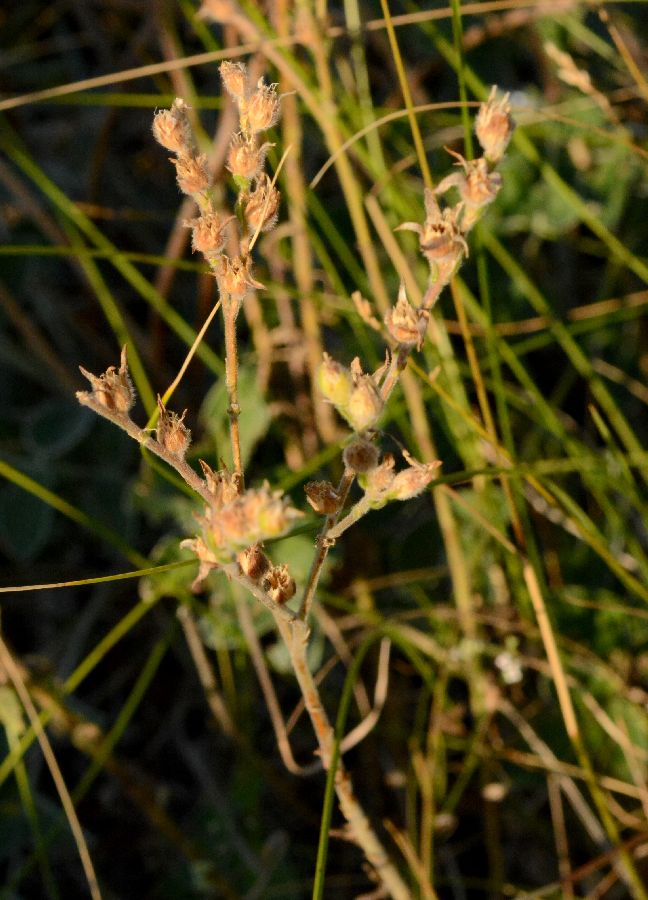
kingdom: Plantae
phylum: Tracheophyta
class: Magnoliopsida
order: Malpighiales
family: Linaceae
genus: Linum
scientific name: Linum hirsutum
